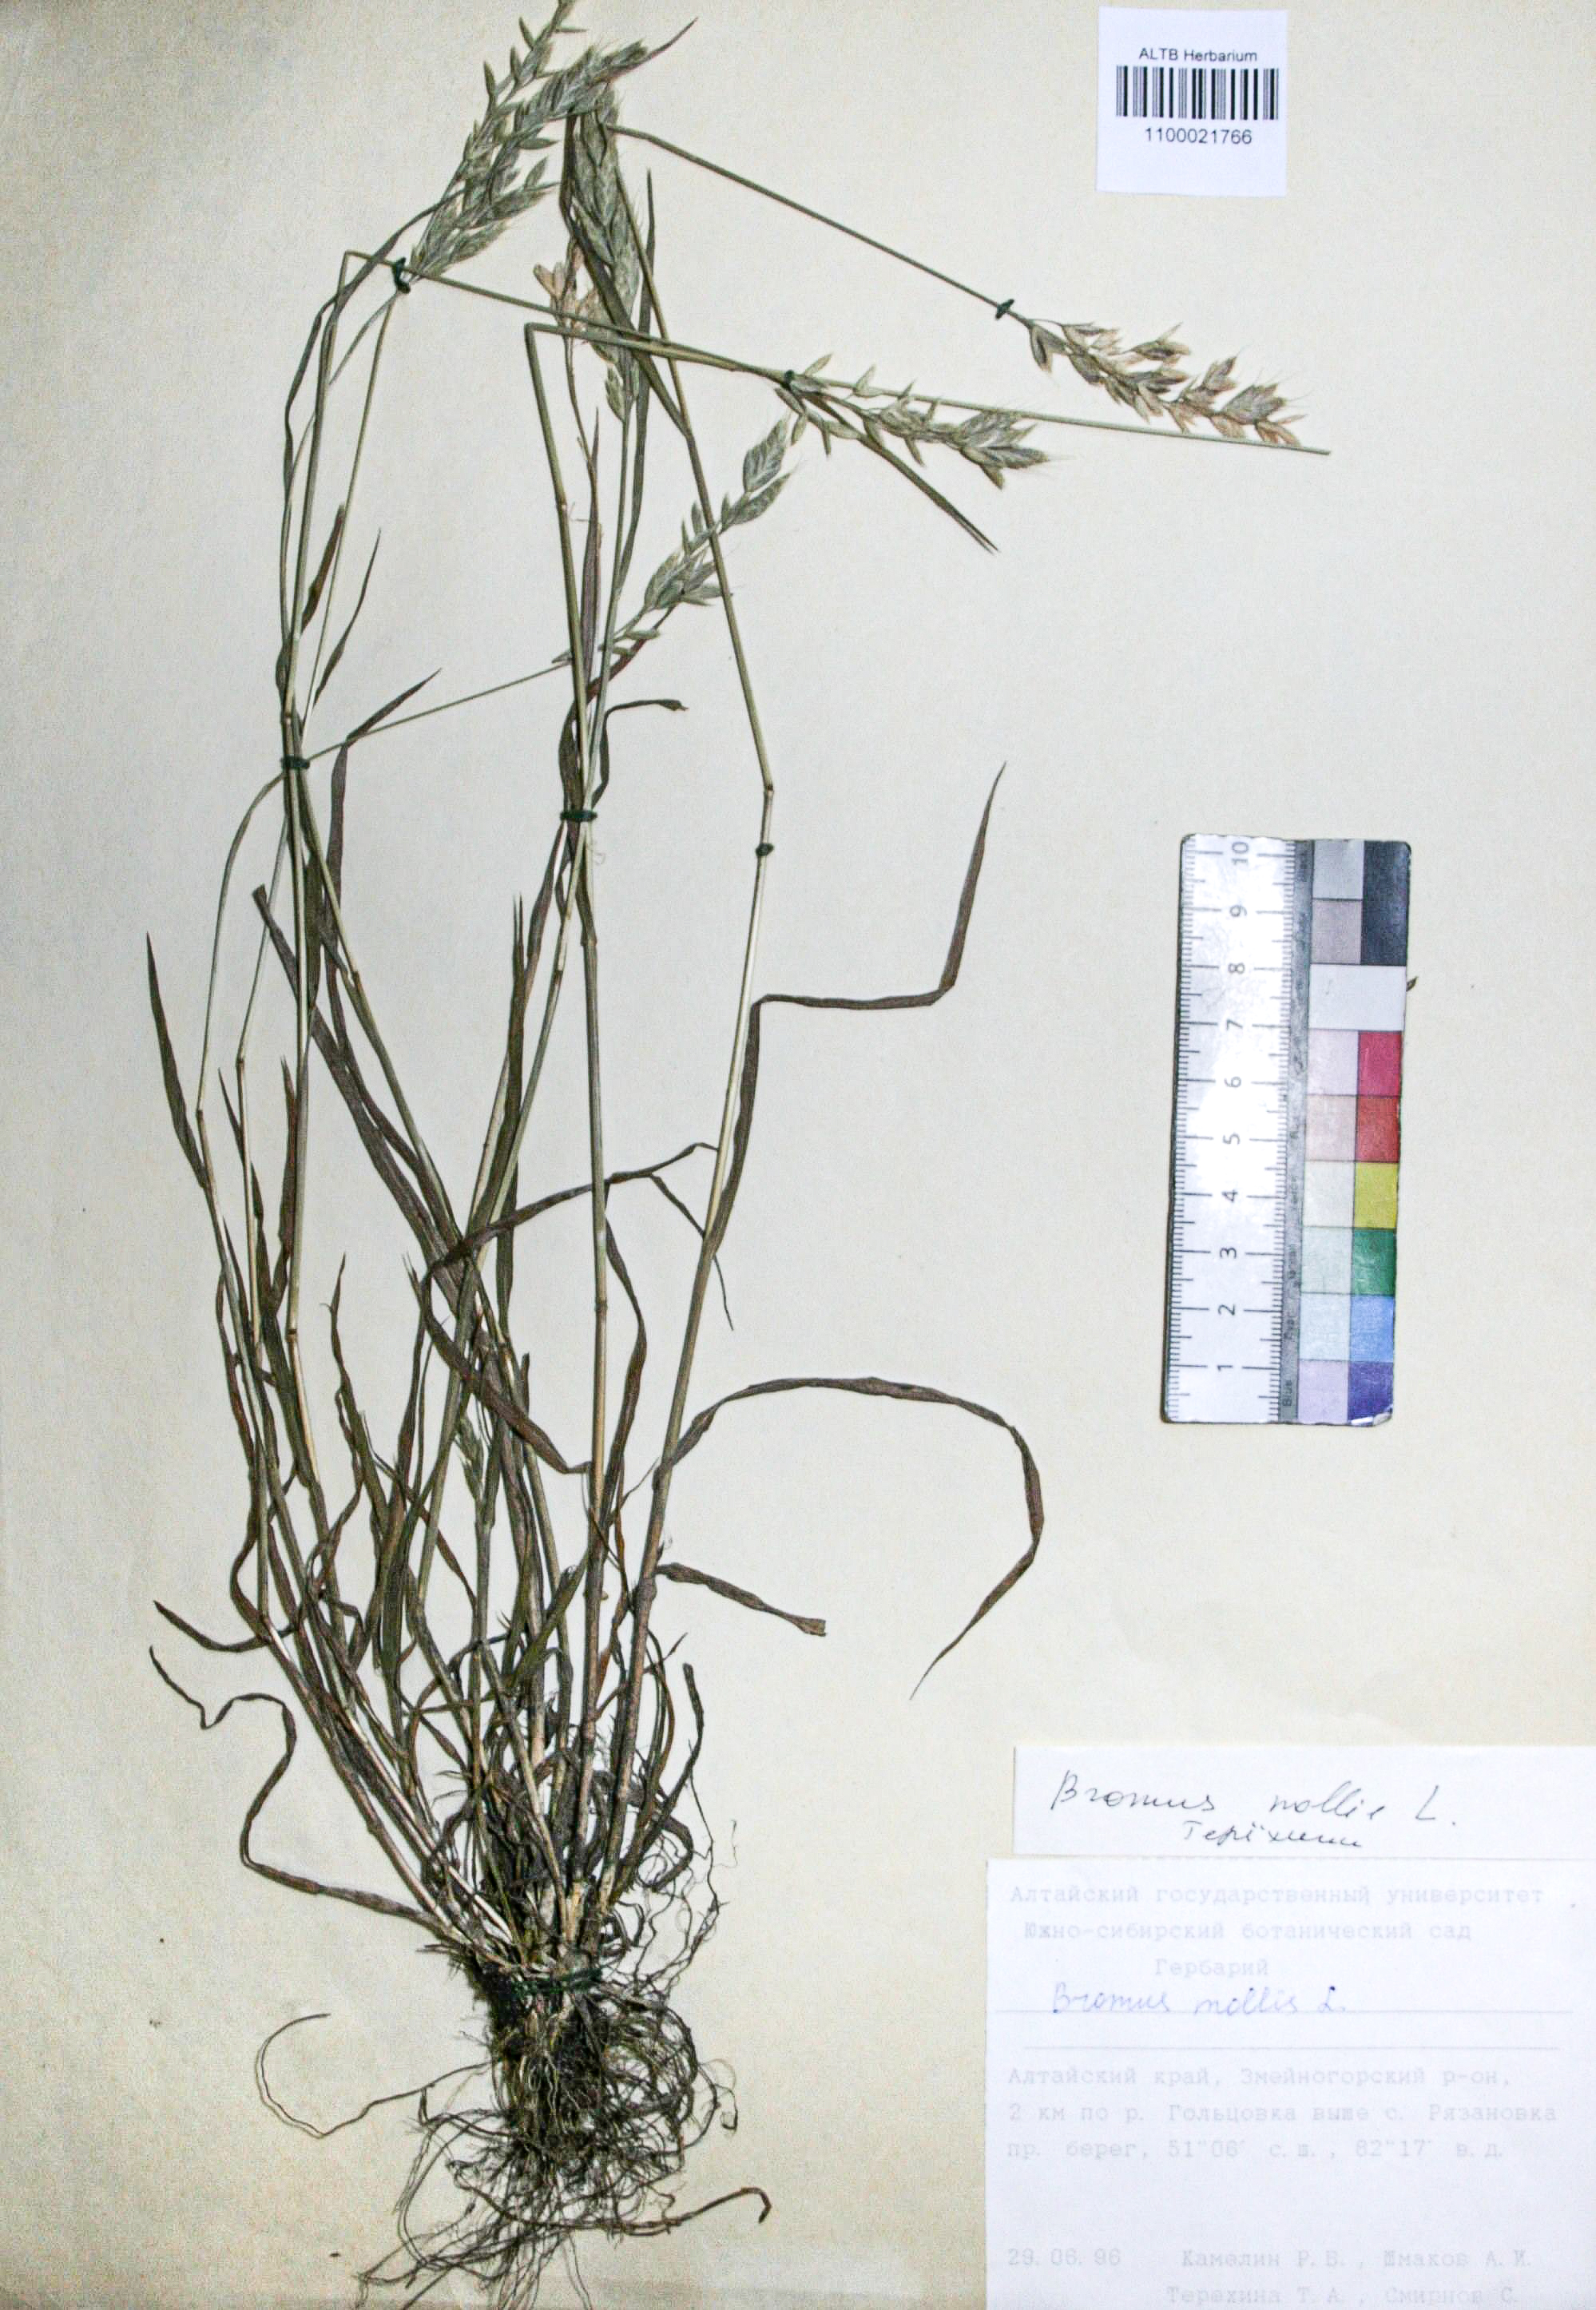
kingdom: Plantae
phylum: Tracheophyta
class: Liliopsida
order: Poales
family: Poaceae
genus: Bromus
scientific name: Bromus hordeaceus
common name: Soft brome
